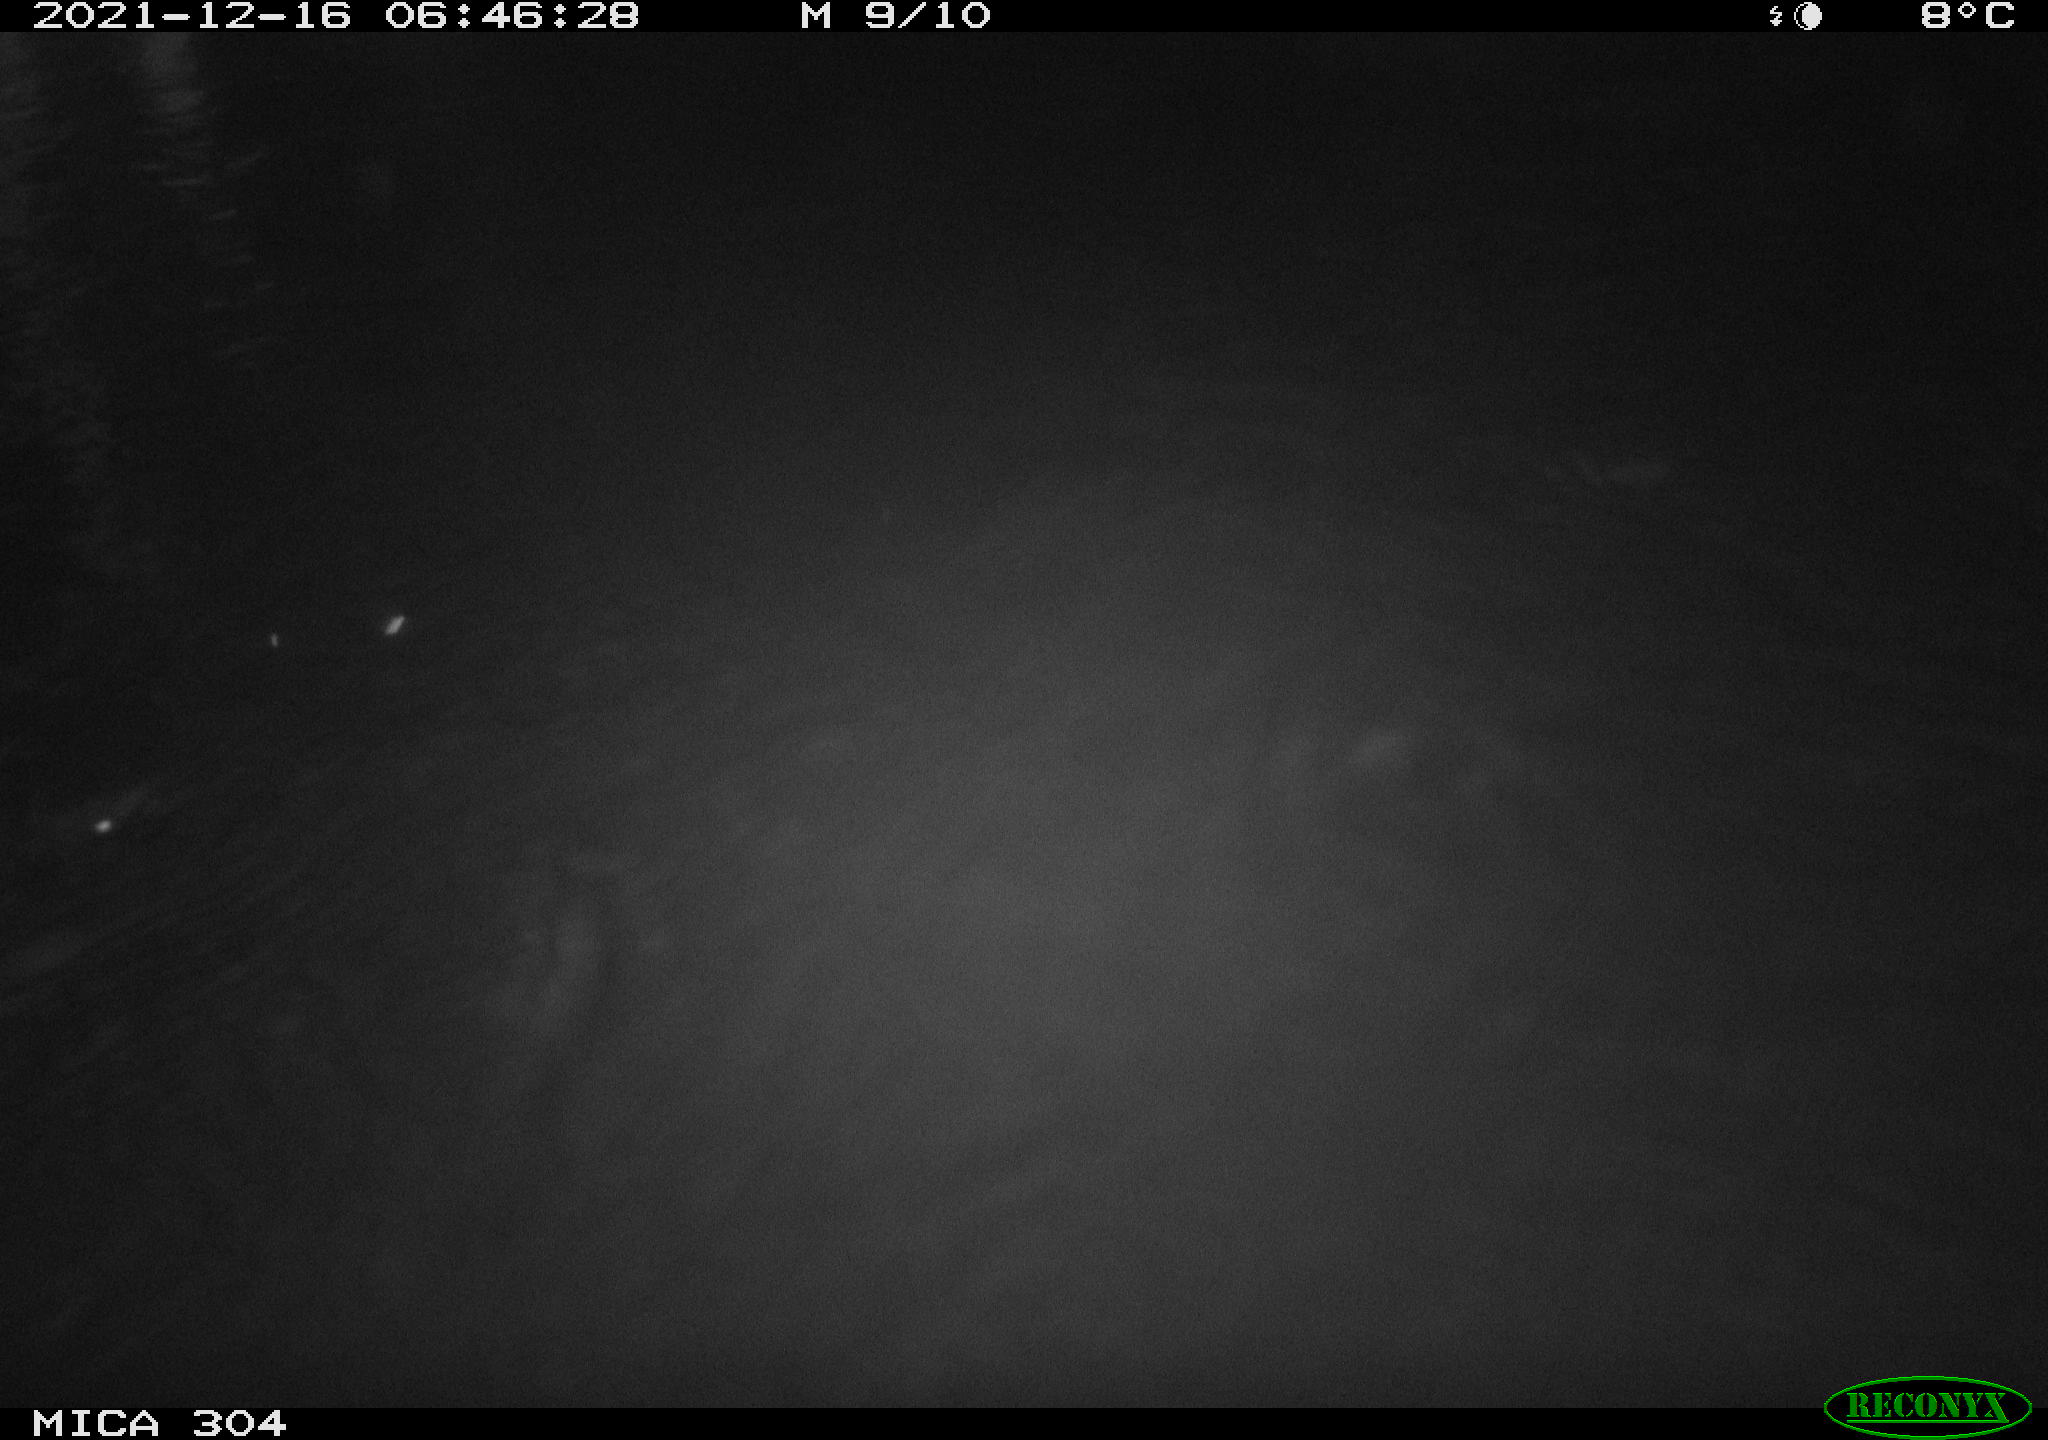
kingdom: Animalia
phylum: Chordata
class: Mammalia
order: Rodentia
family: Cricetidae
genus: Ondatra
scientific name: Ondatra zibethicus
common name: Muskrat
